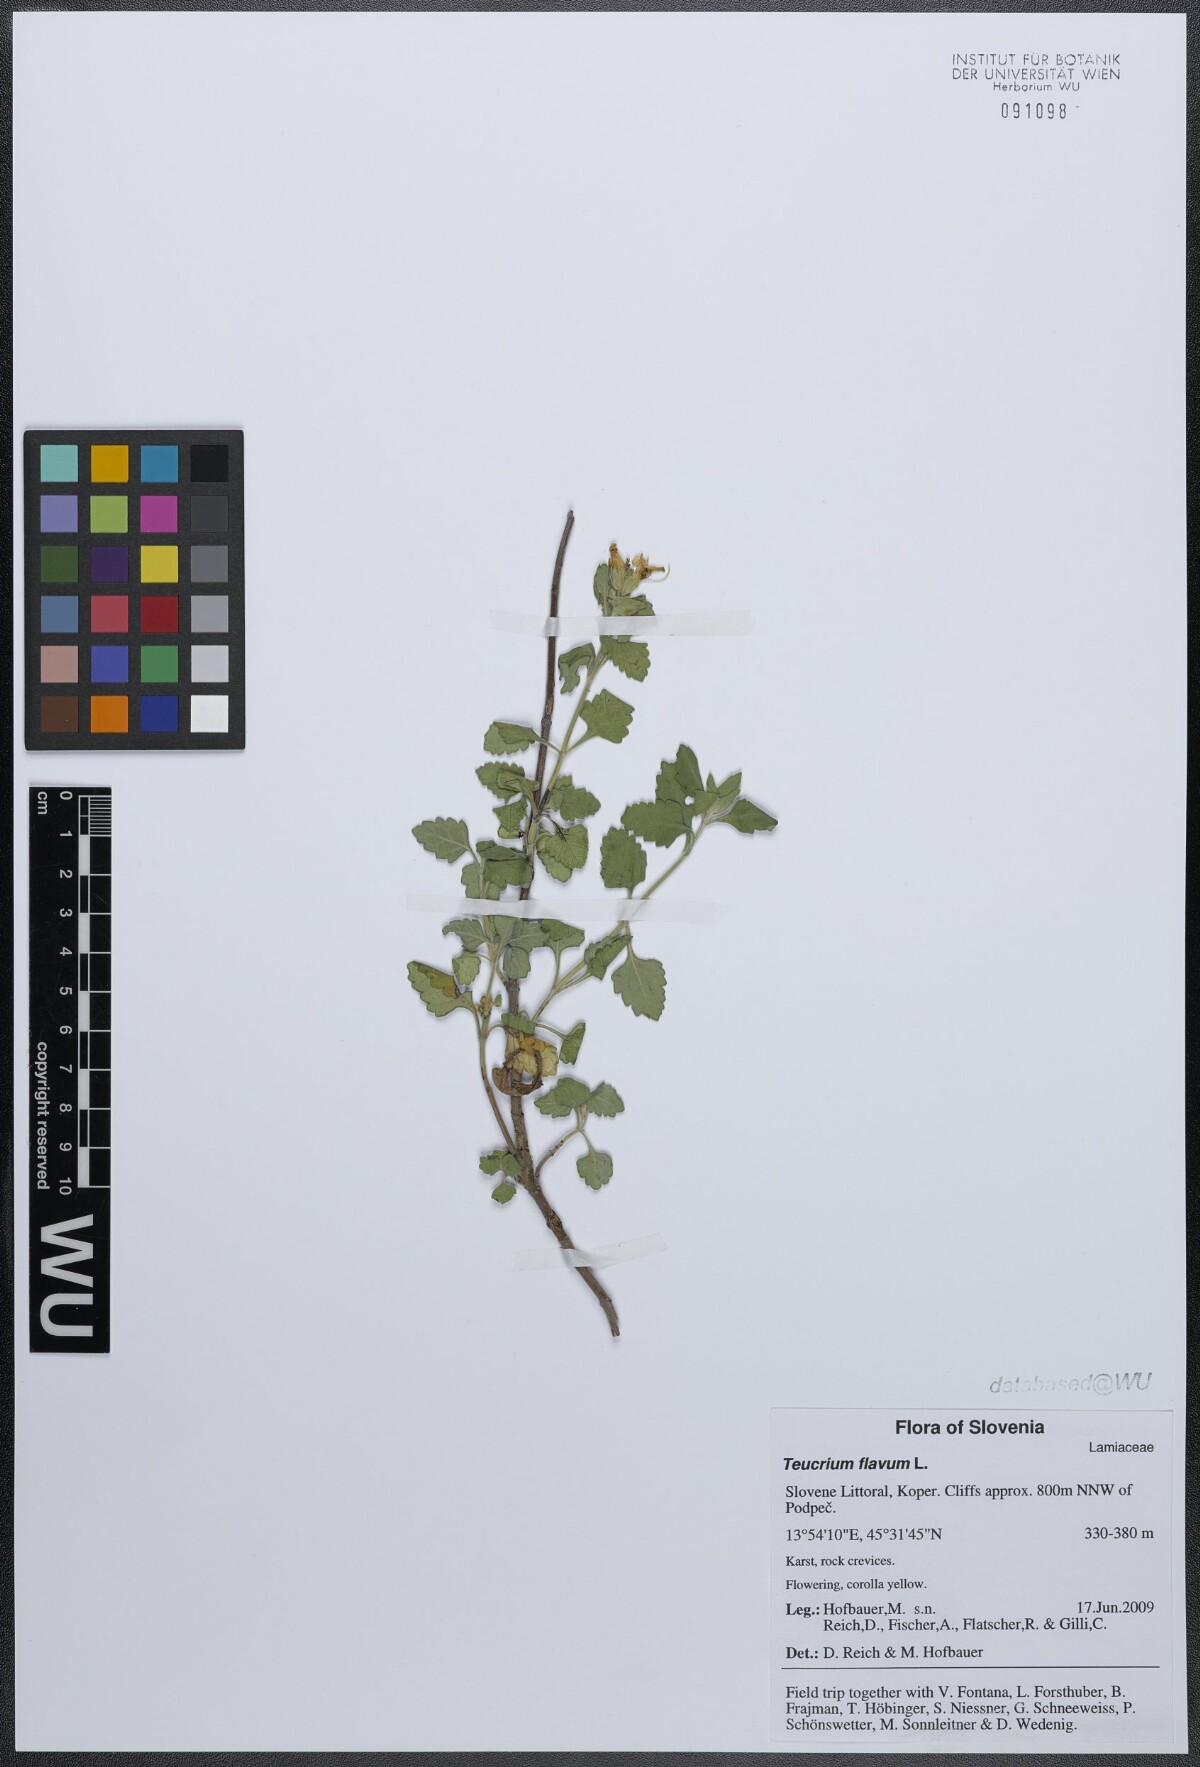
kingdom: Plantae
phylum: Tracheophyta
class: Magnoliopsida
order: Lamiales
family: Lamiaceae
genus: Teucrium
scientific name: Teucrium flavum
